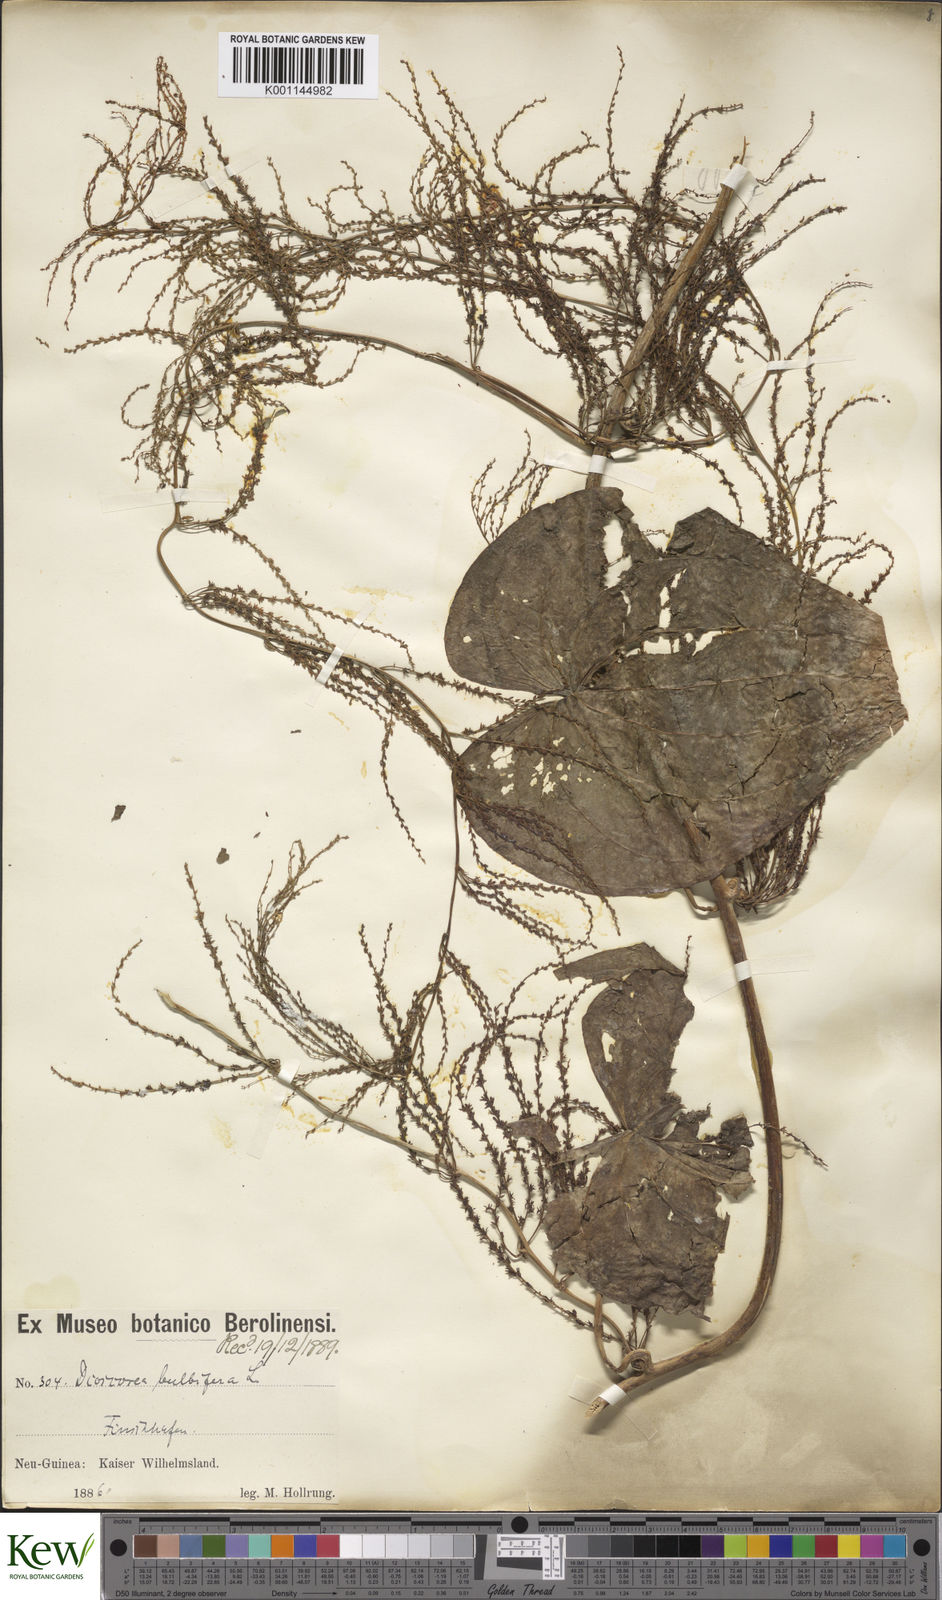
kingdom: Plantae
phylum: Tracheophyta
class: Liliopsida
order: Dioscoreales
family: Dioscoreaceae
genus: Dioscorea
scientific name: Dioscorea bulbifera
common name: Air yam
